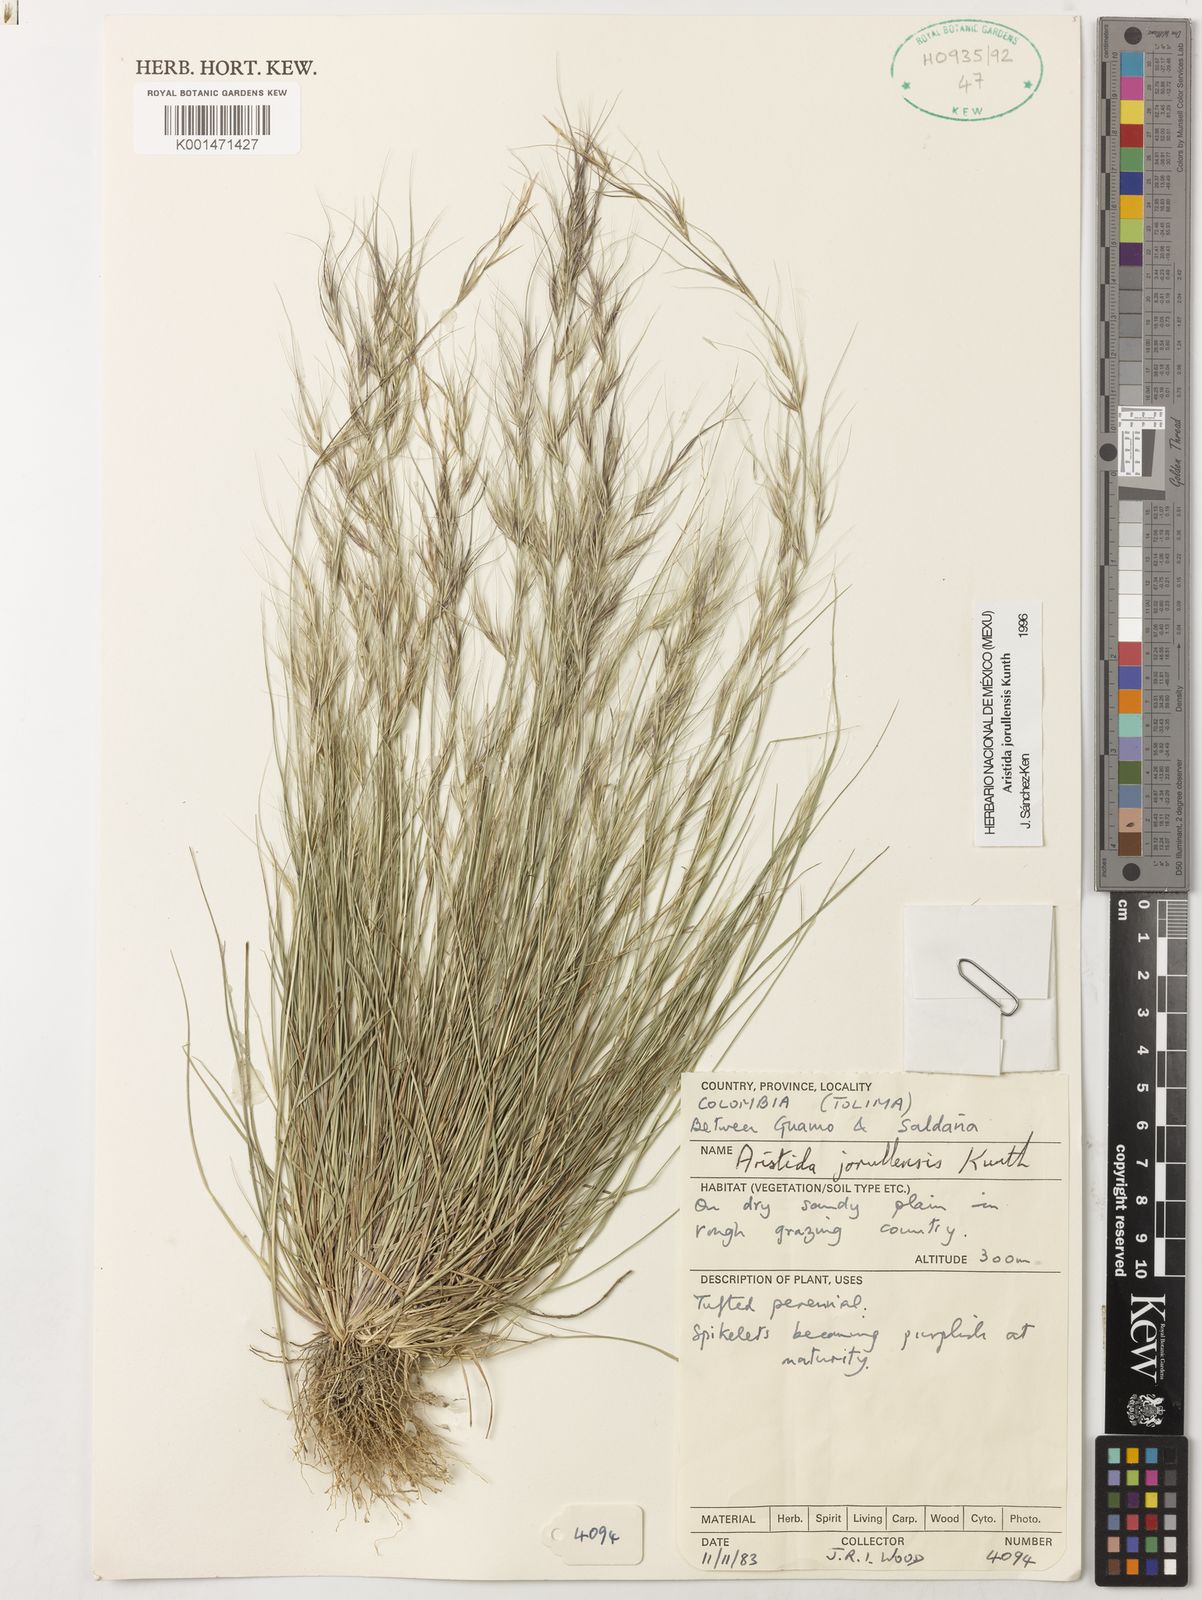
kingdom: Plantae
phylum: Tracheophyta
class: Liliopsida
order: Poales
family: Poaceae
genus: Aristida
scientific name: Aristida jorullensis
